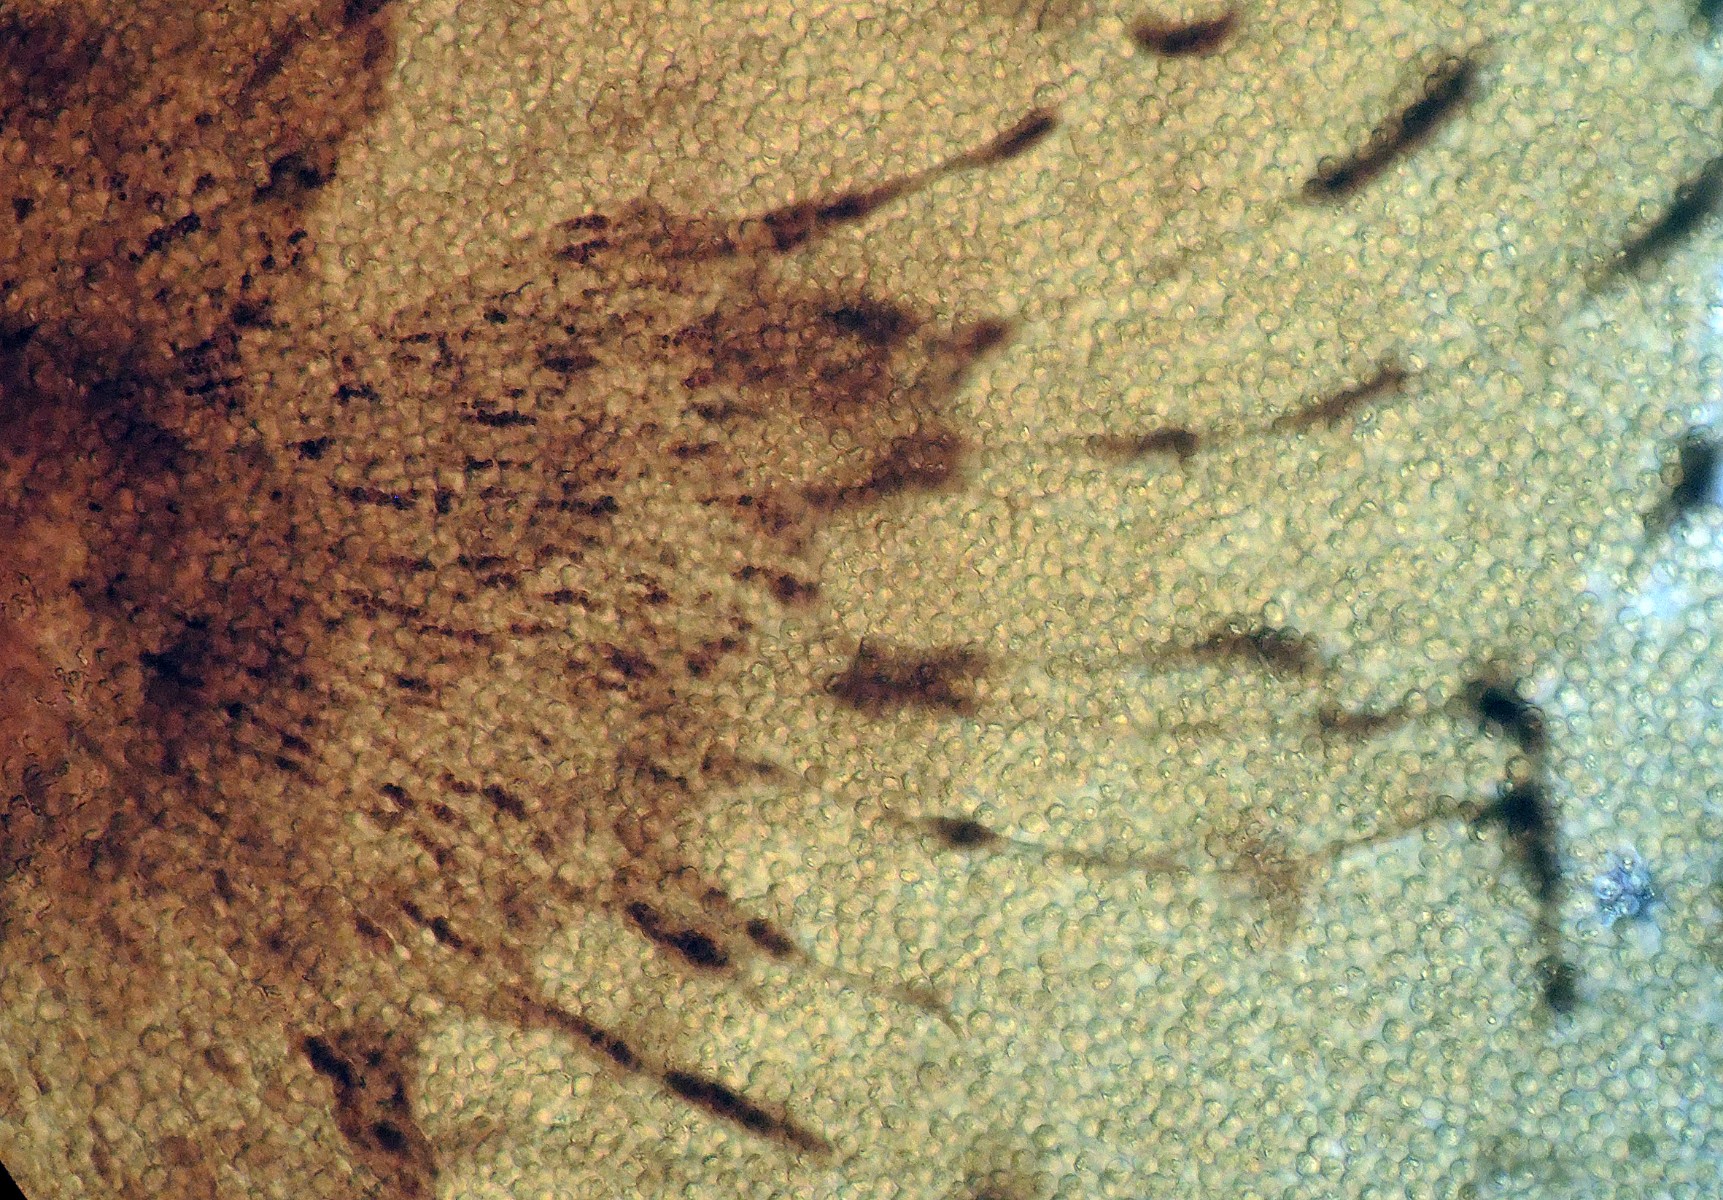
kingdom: Protozoa
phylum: Mycetozoa
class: Myxomycetes
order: Cribrariales
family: Cribrariaceae
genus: Cribraria
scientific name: Cribraria aurantiaca
